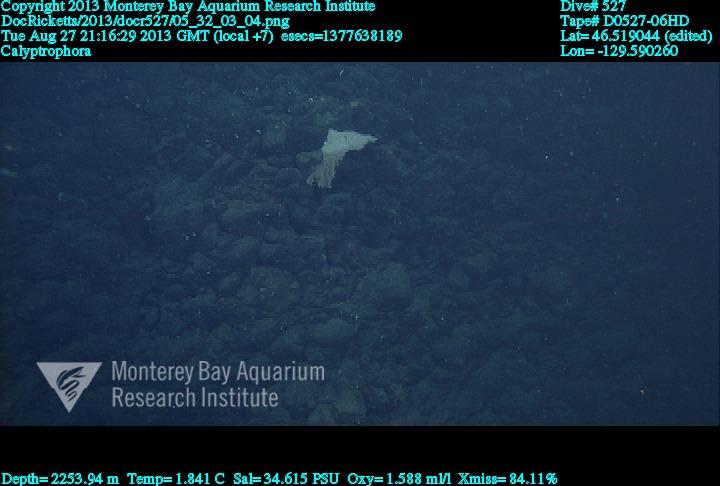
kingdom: Animalia
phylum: Cnidaria
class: Anthozoa
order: Scleralcyonacea
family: Primnoidae
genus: Calyptrophora
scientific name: Calyptrophora
